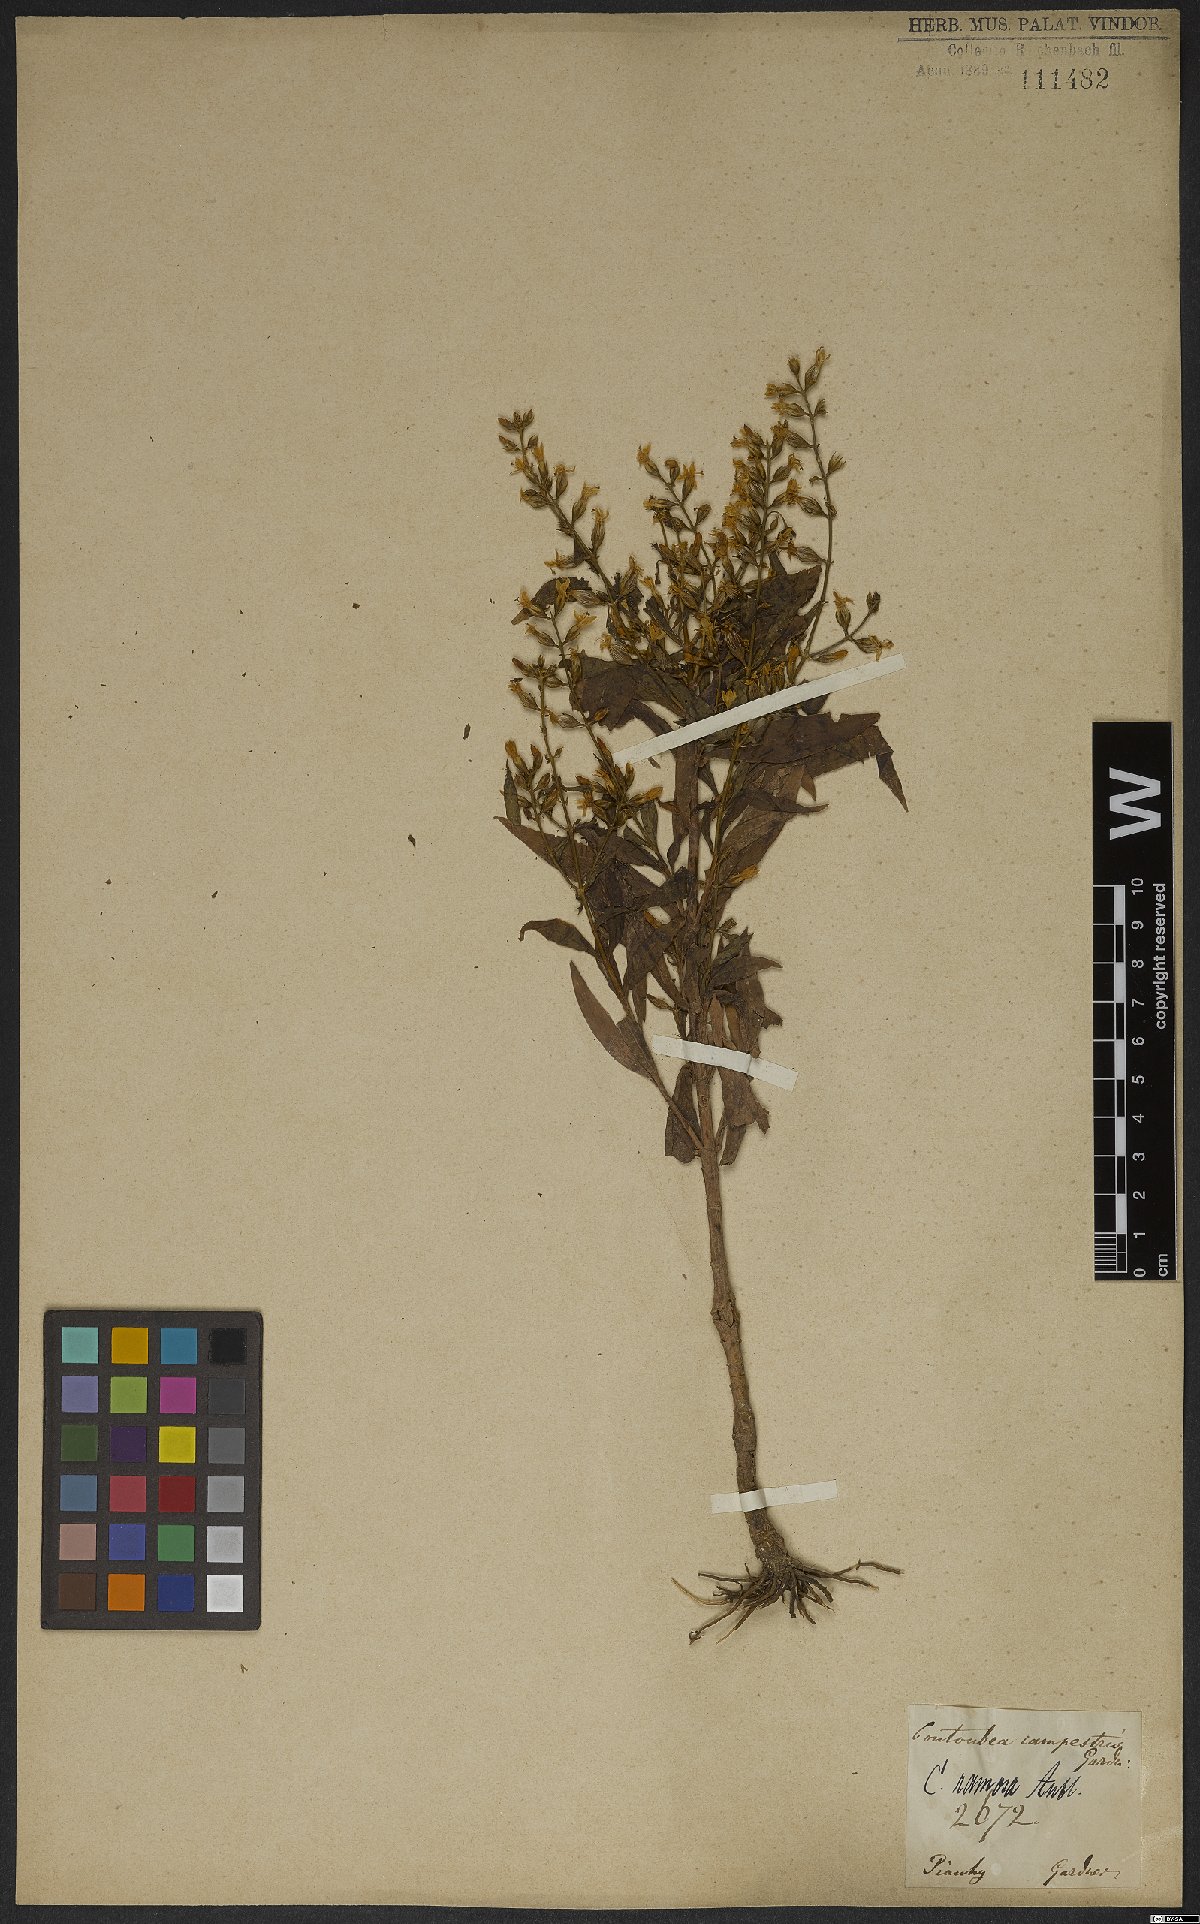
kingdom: Plantae
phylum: Tracheophyta
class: Magnoliopsida
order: Gentianales
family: Gentianaceae
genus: Coutoubea
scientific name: Coutoubea ramosa
